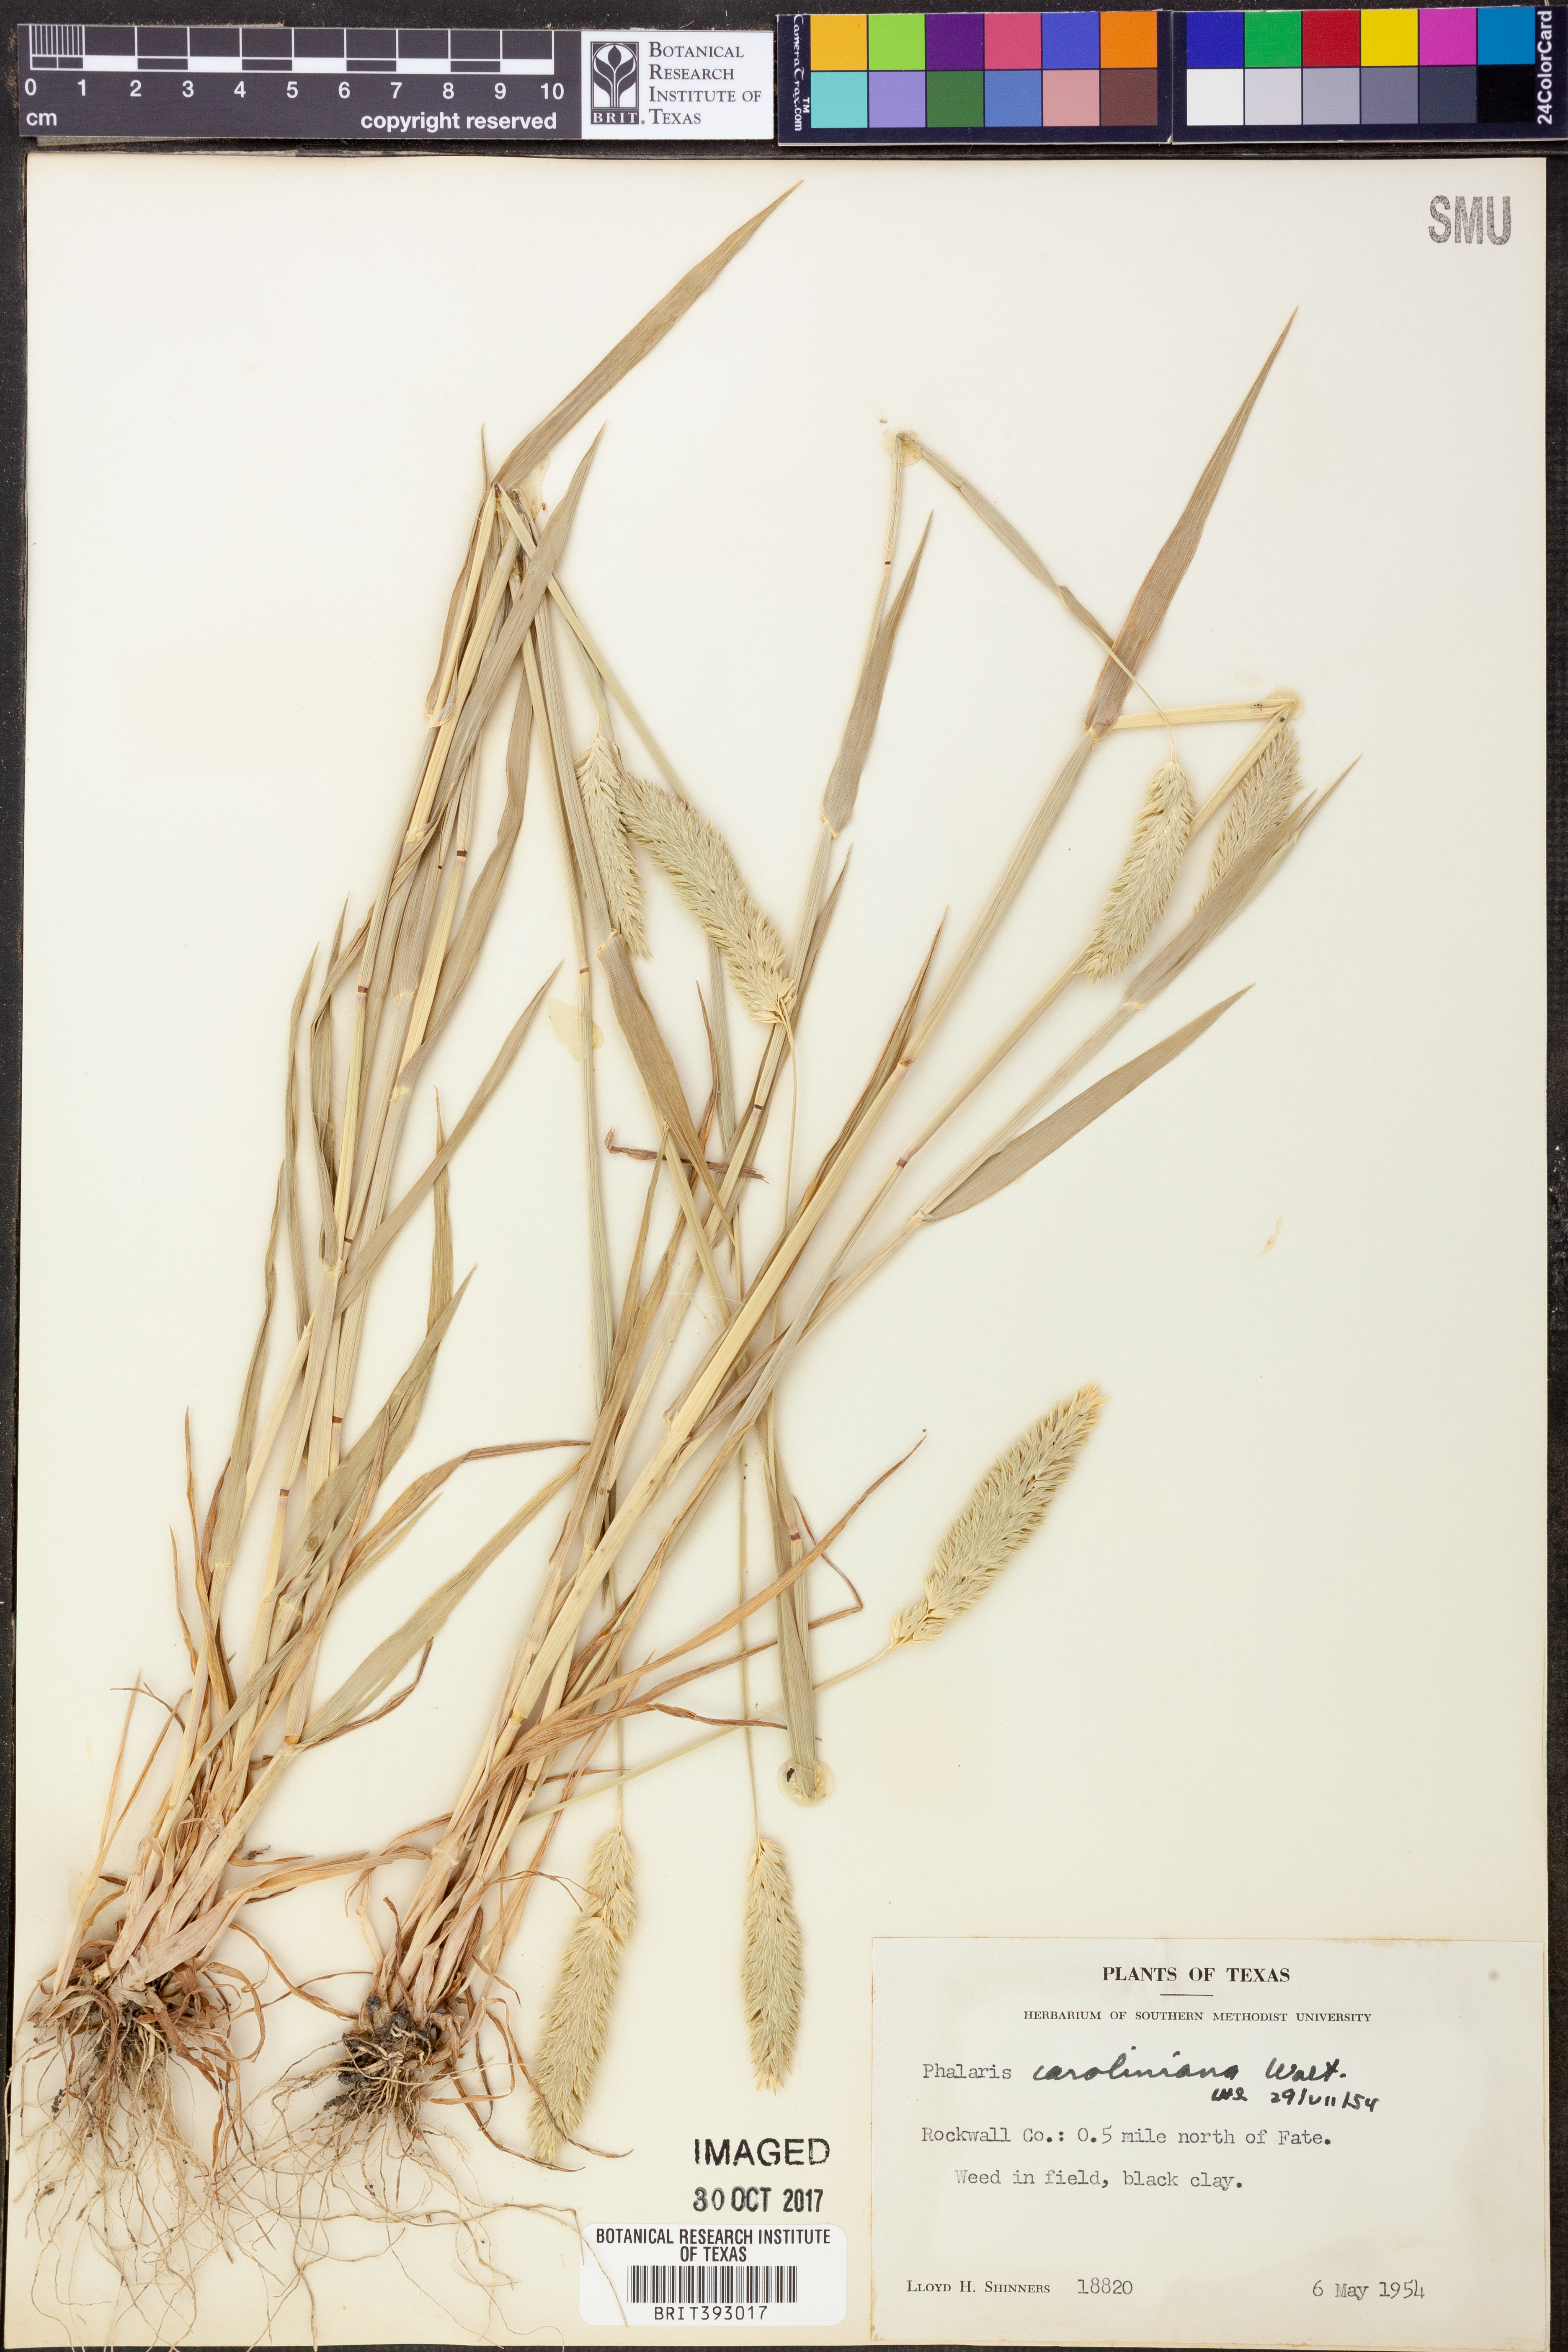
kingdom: Plantae
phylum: Tracheophyta
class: Liliopsida
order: Poales
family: Poaceae
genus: Phalaris
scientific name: Phalaris caroliniana
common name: May grass
